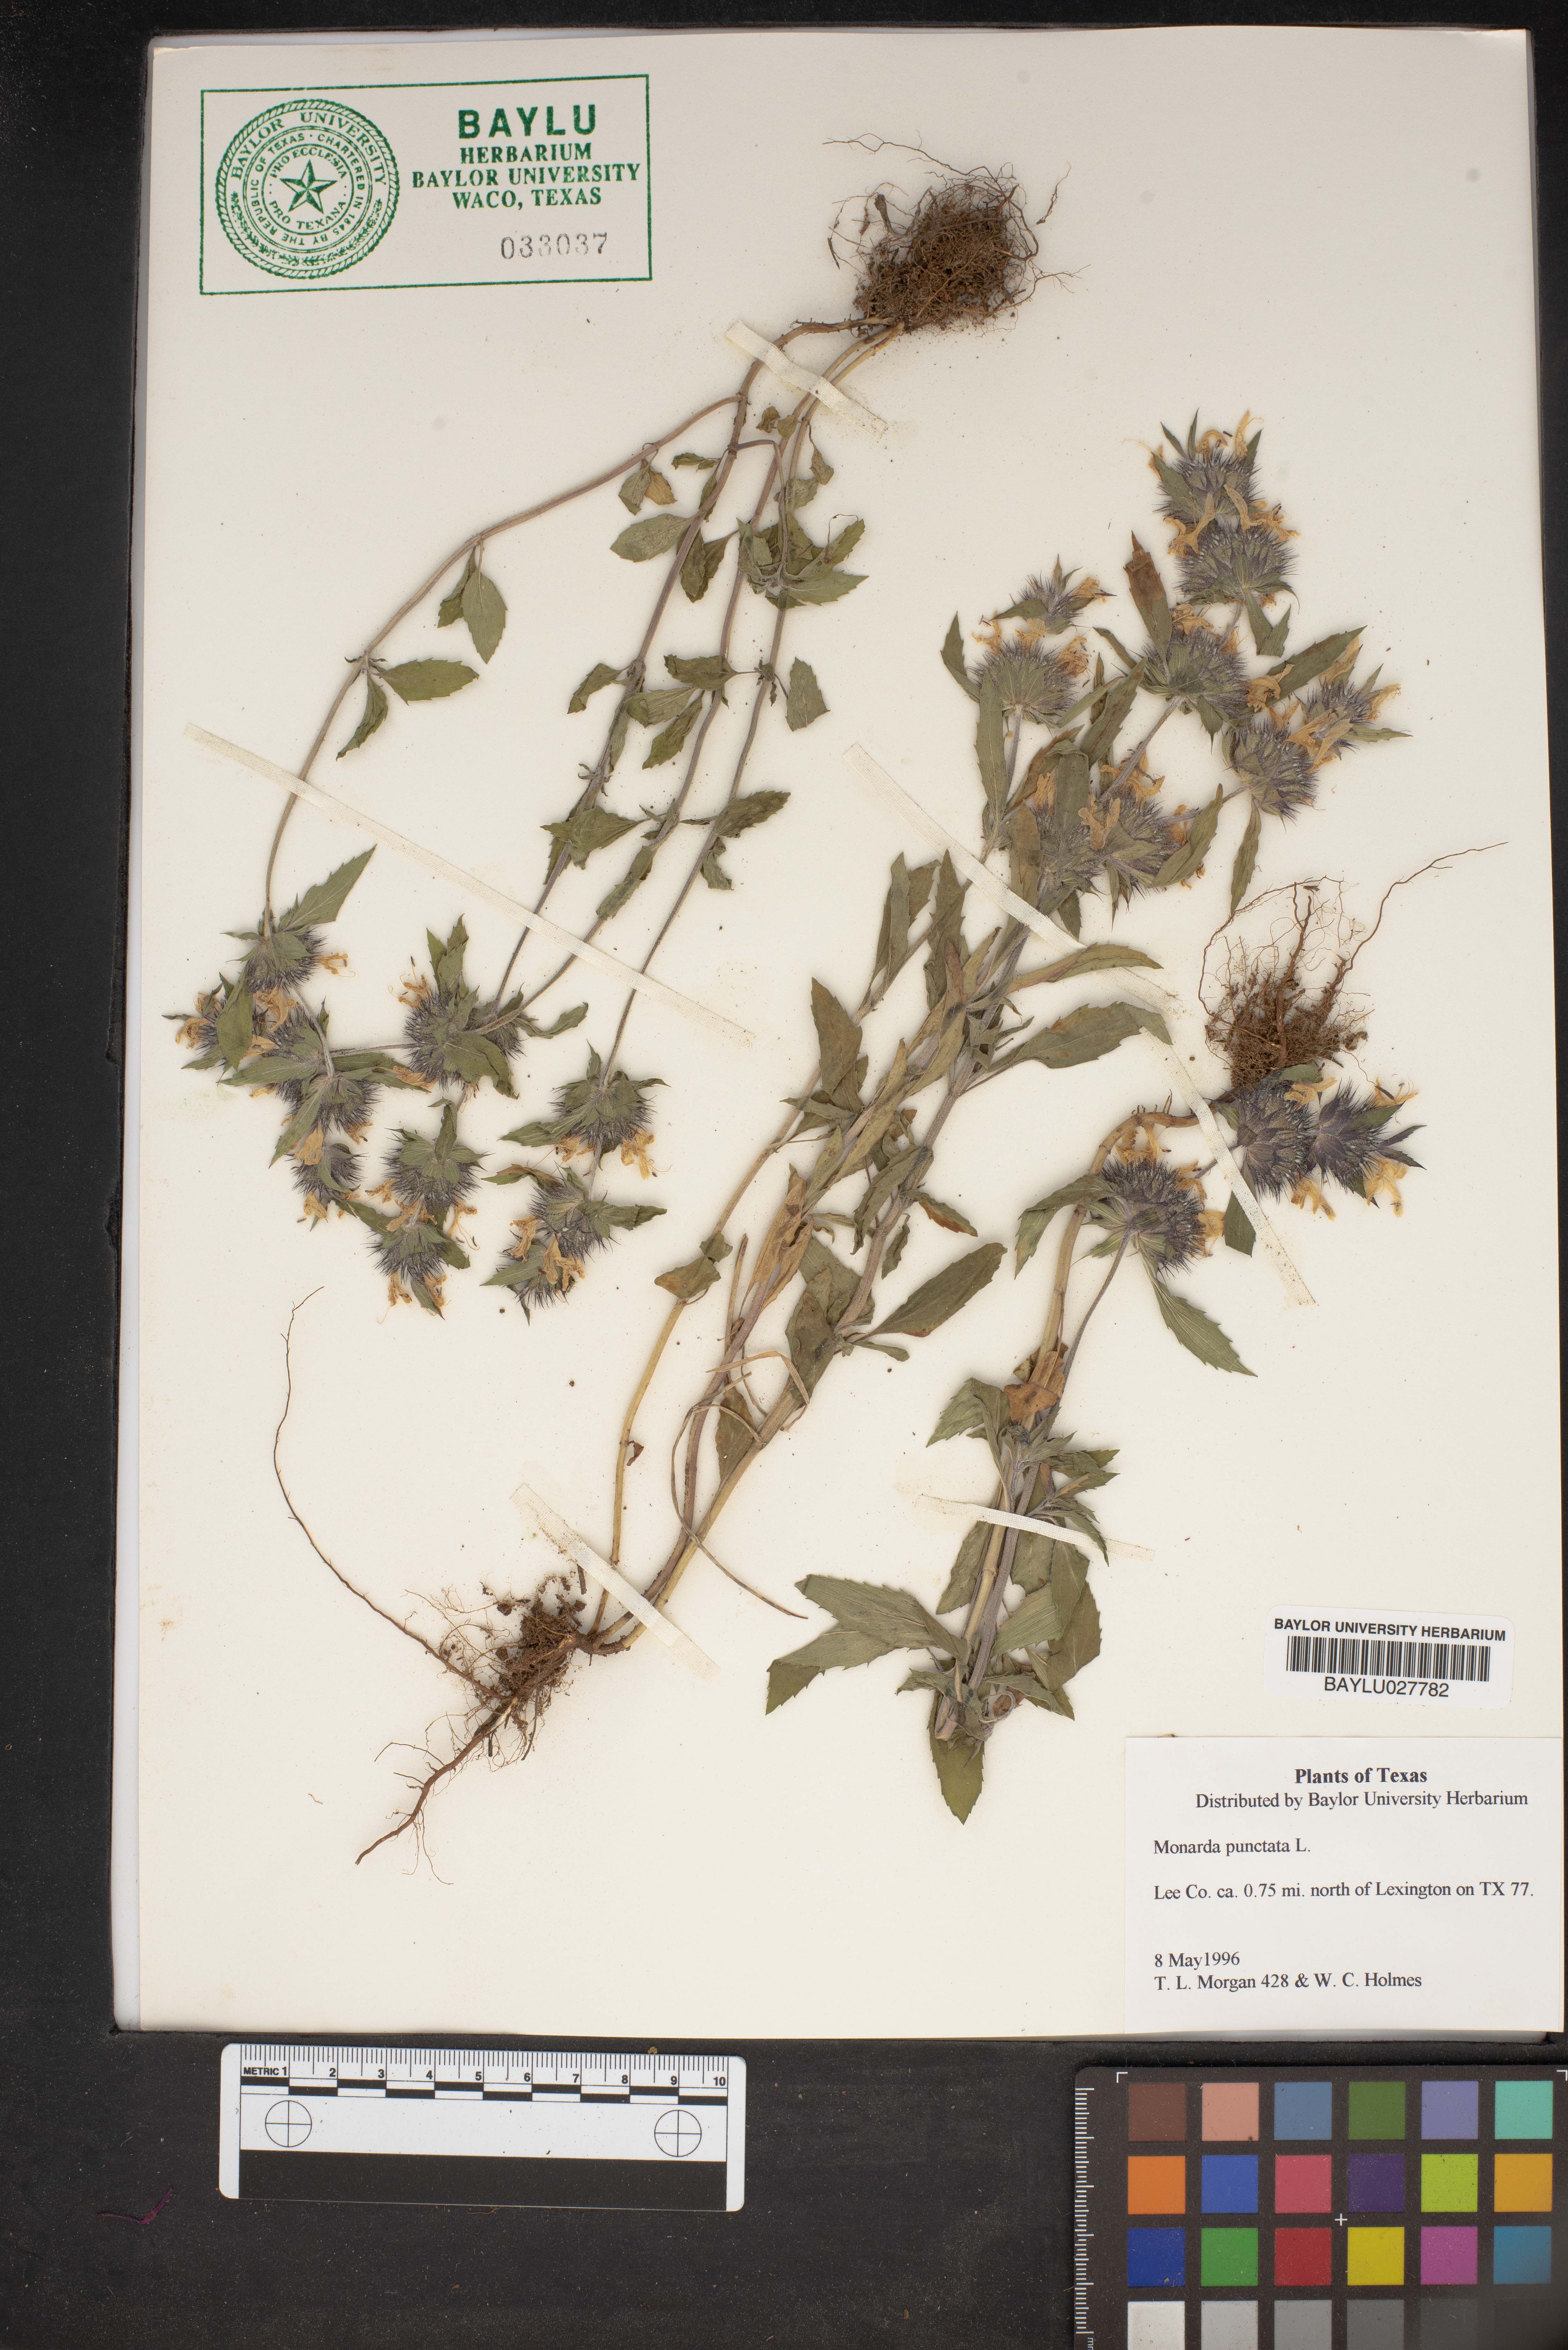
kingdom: Plantae
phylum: Tracheophyta
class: Magnoliopsida
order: Lamiales
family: Lamiaceae
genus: Monarda
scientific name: Monarda punctata
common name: Dotted monarda
